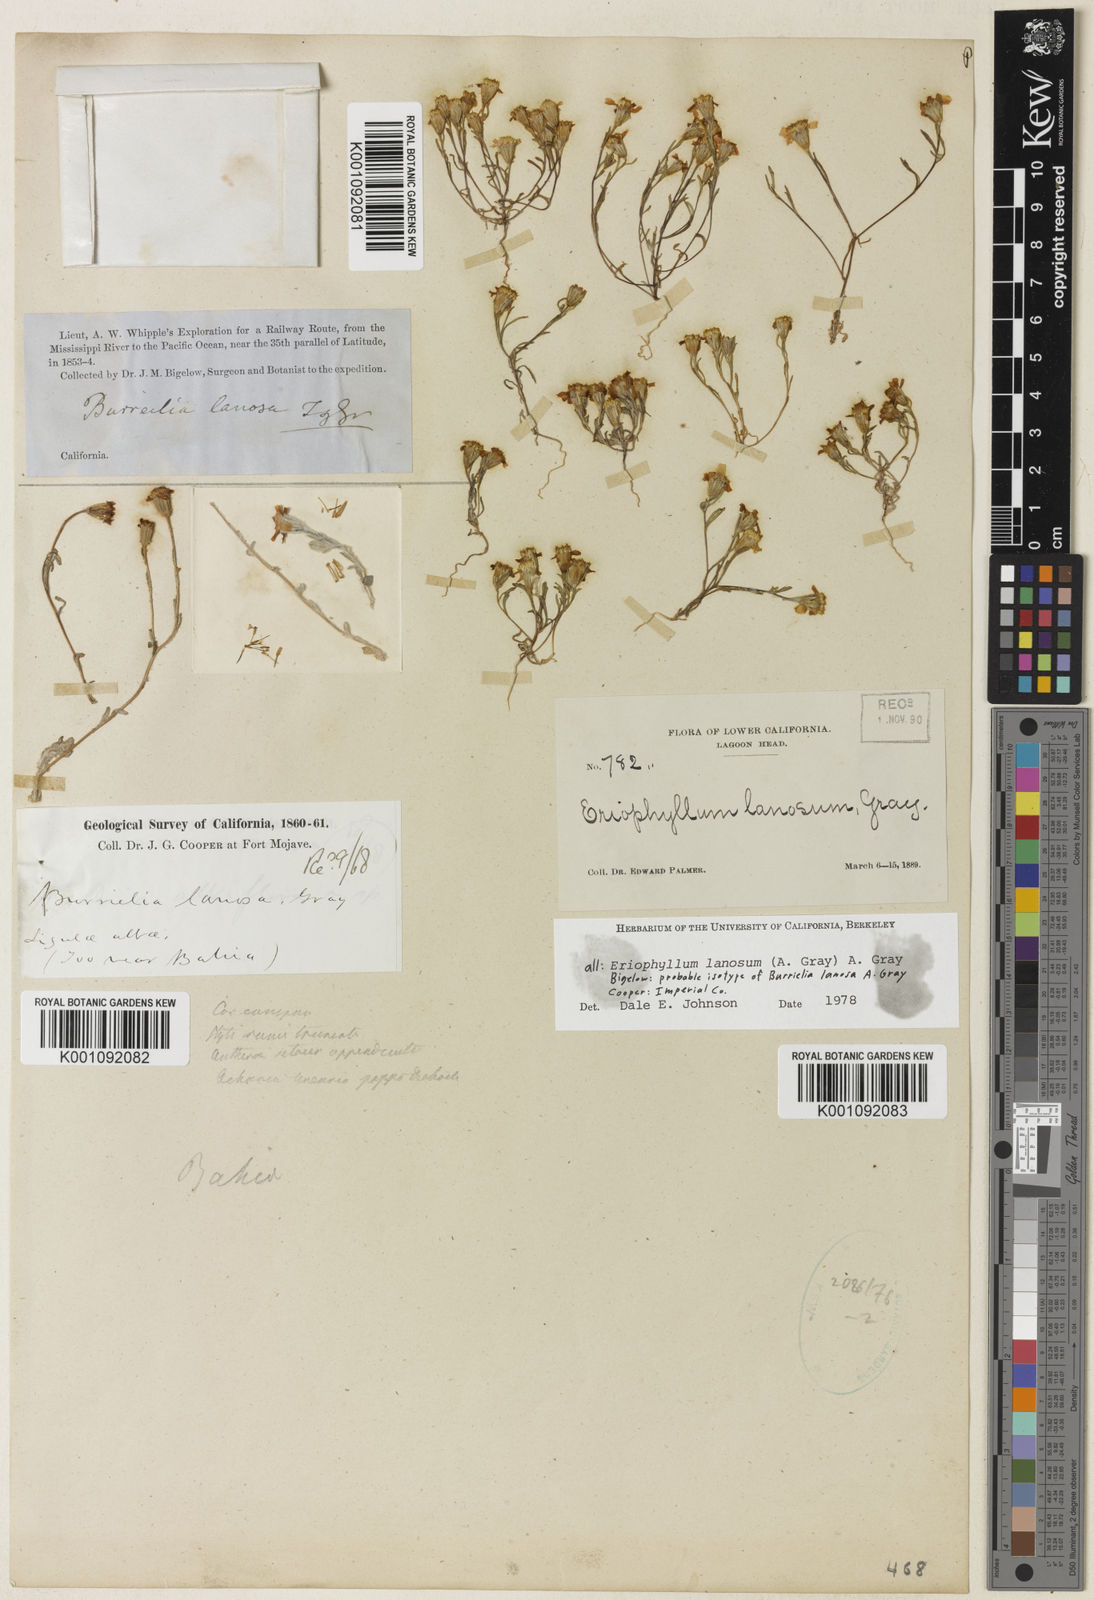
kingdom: Plantae
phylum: Tracheophyta
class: Magnoliopsida
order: Asterales
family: Asteraceae
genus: Eriophyllum
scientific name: Eriophyllum lanosum
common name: White easter-bonnets
